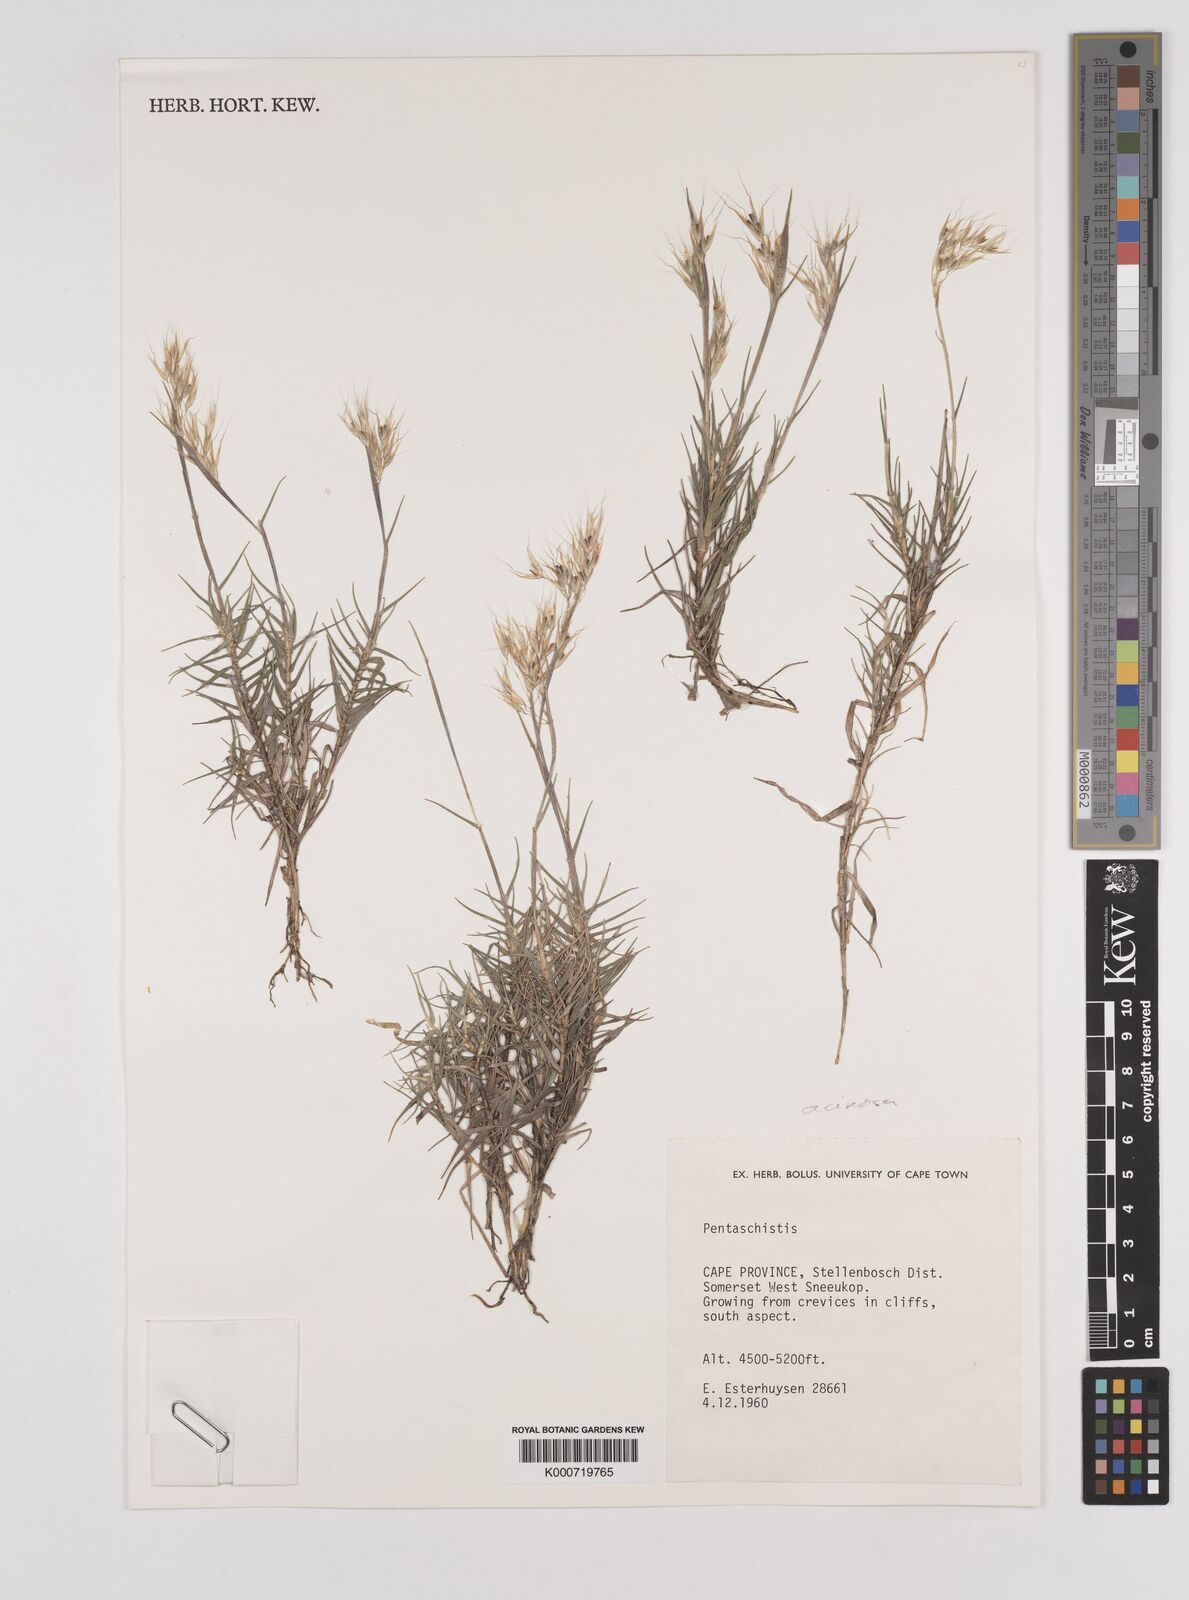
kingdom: Plantae
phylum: Tracheophyta
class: Liliopsida
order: Poales
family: Poaceae
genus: Pentameris
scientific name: Pentameris acinosa
